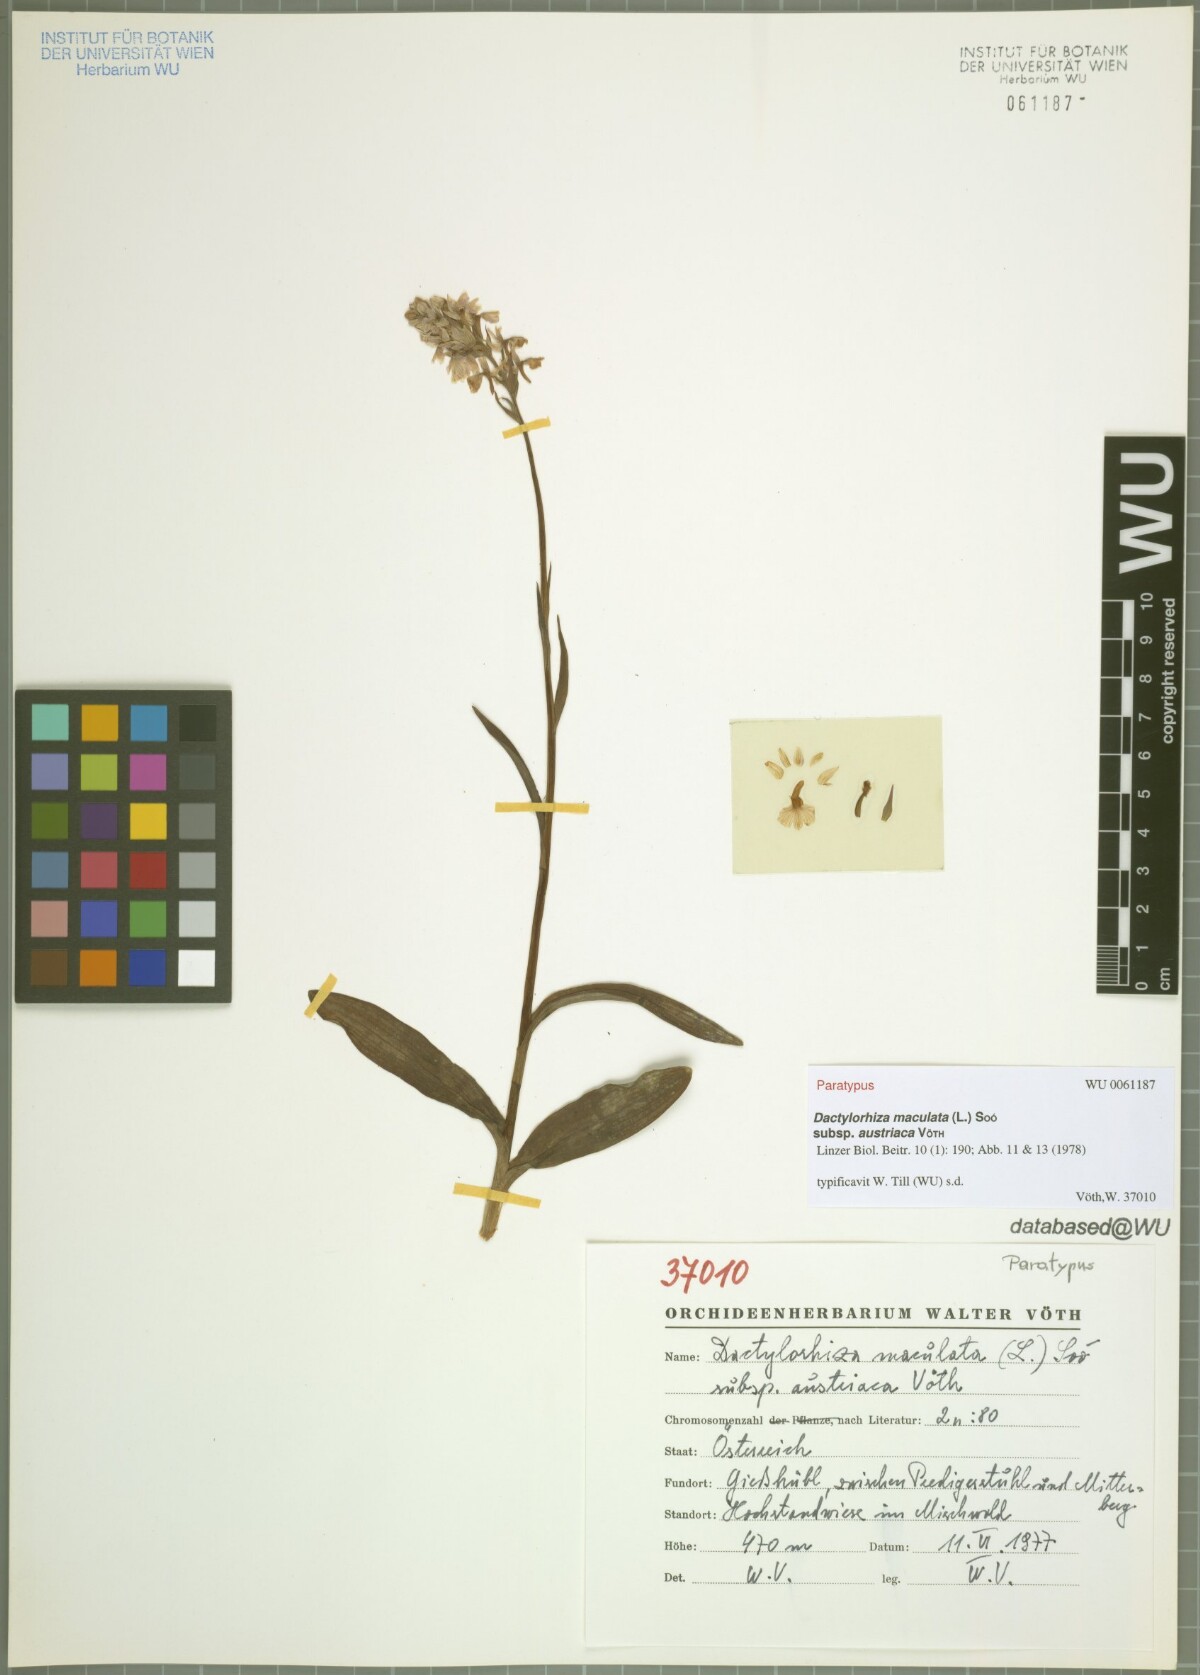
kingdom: Plantae
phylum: Tracheophyta
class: Liliopsida
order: Asparagales
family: Orchidaceae
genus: Dactylorhiza
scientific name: Dactylorhiza maculata
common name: Heath spotted-orchid
